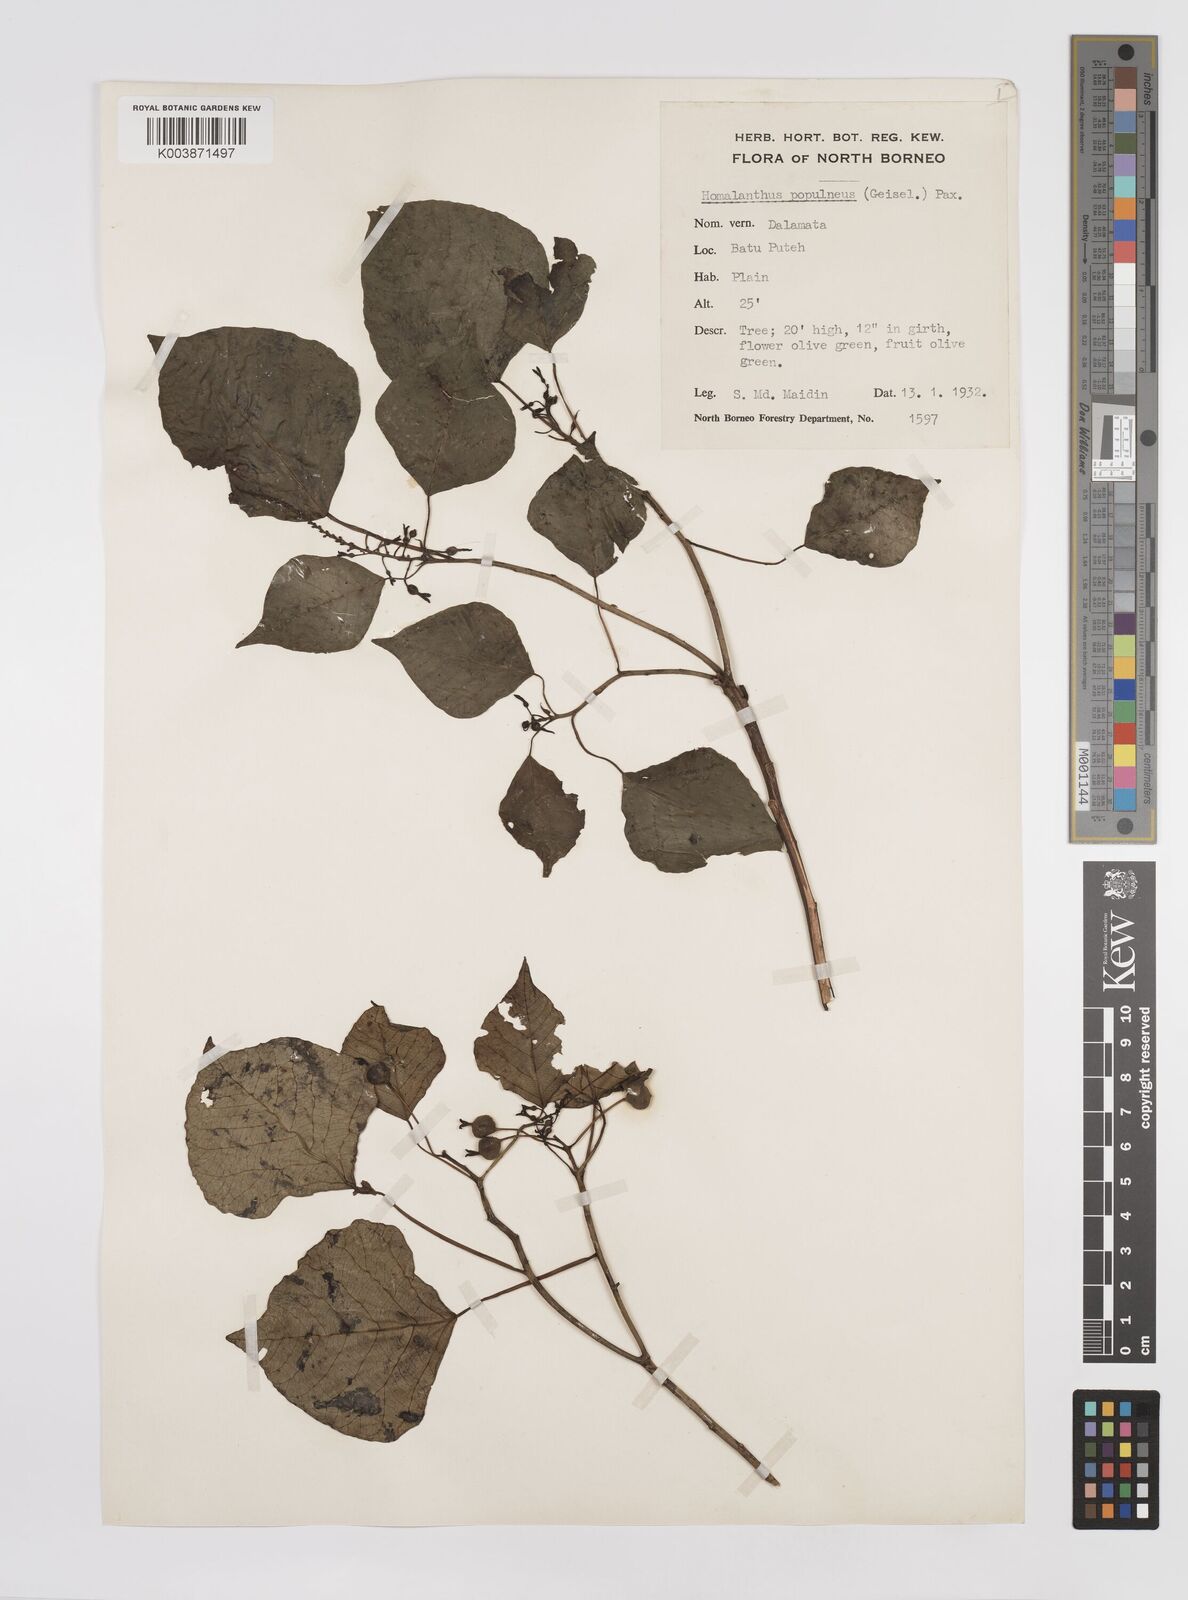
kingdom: Plantae
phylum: Tracheophyta
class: Magnoliopsida
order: Malpighiales
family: Euphorbiaceae
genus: Homalanthus
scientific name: Homalanthus populneus
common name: Spurge
